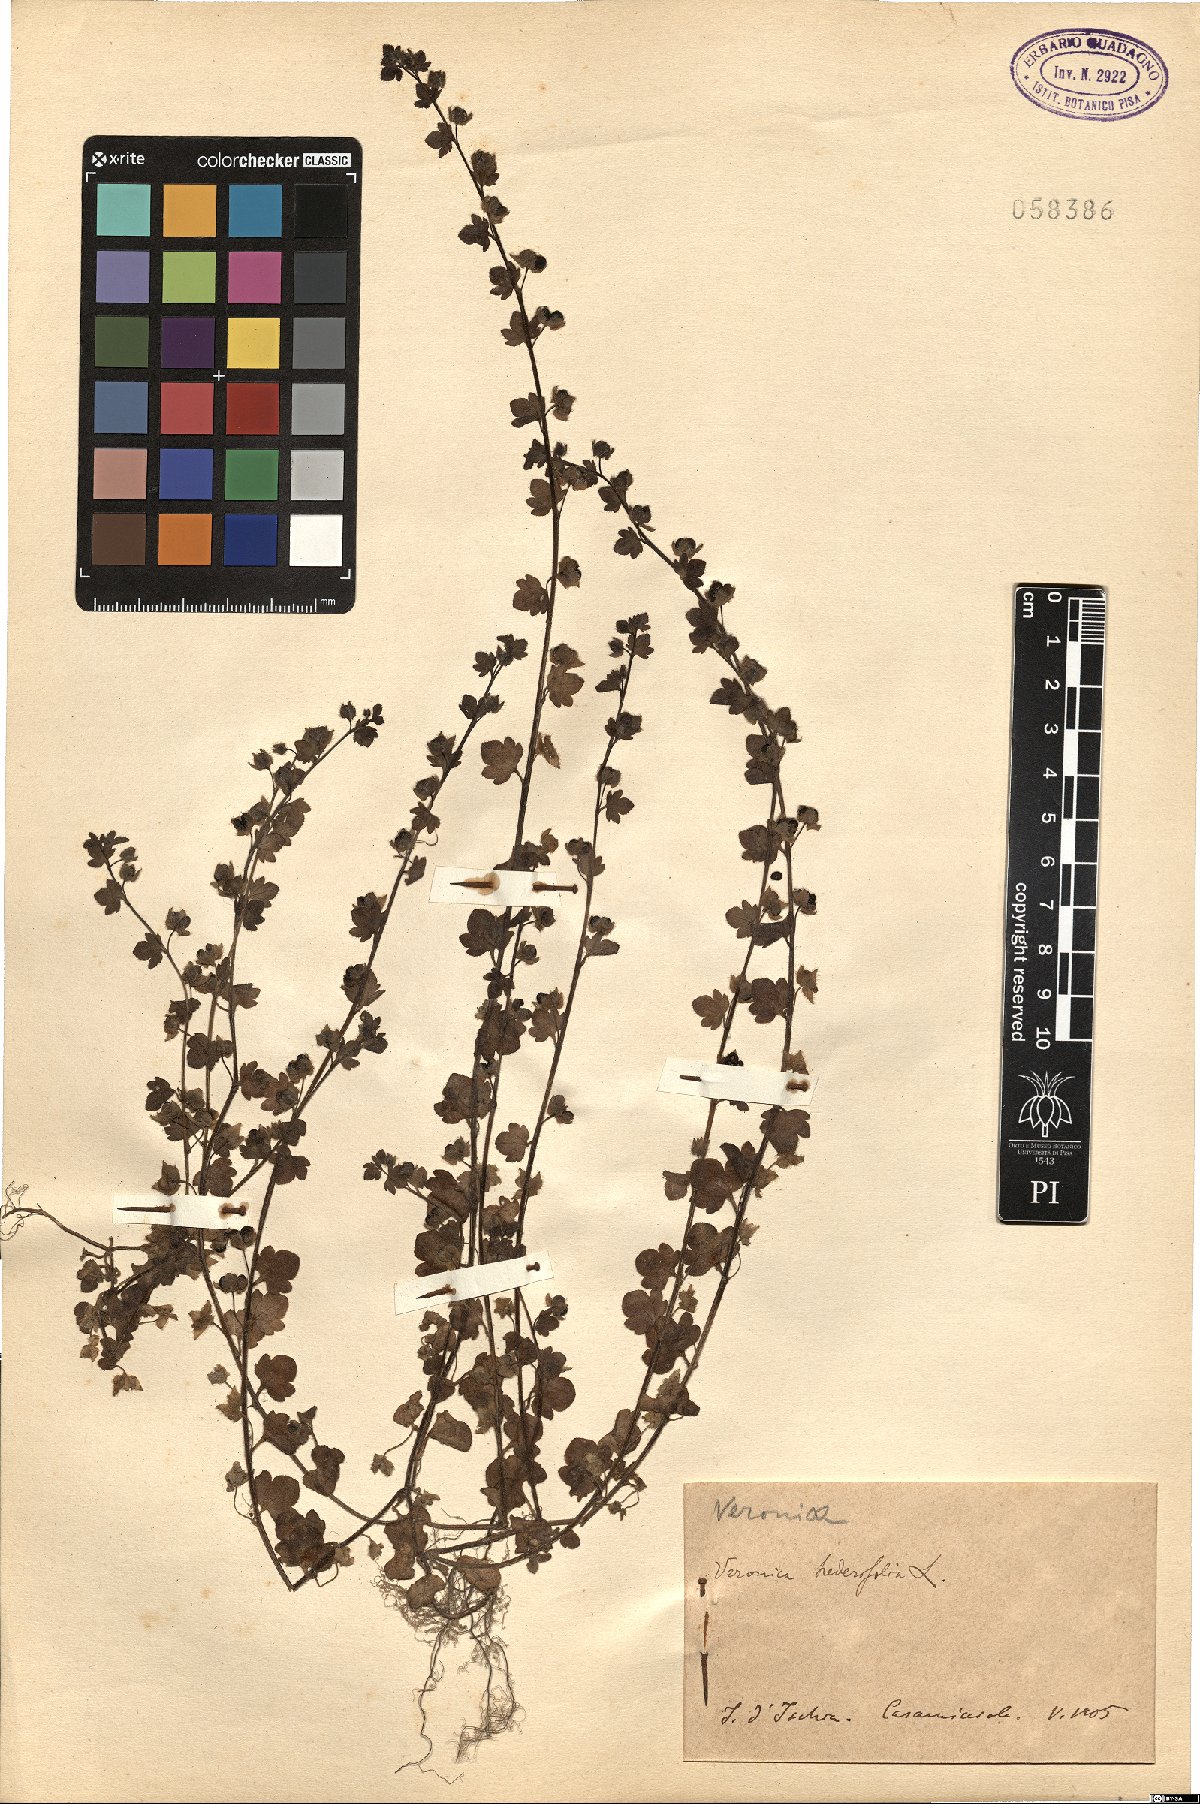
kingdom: Plantae
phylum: Tracheophyta
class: Magnoliopsida
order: Lamiales
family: Plantaginaceae
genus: Veronica
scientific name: Veronica hederifolia
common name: Ivy-leaved speedwell
